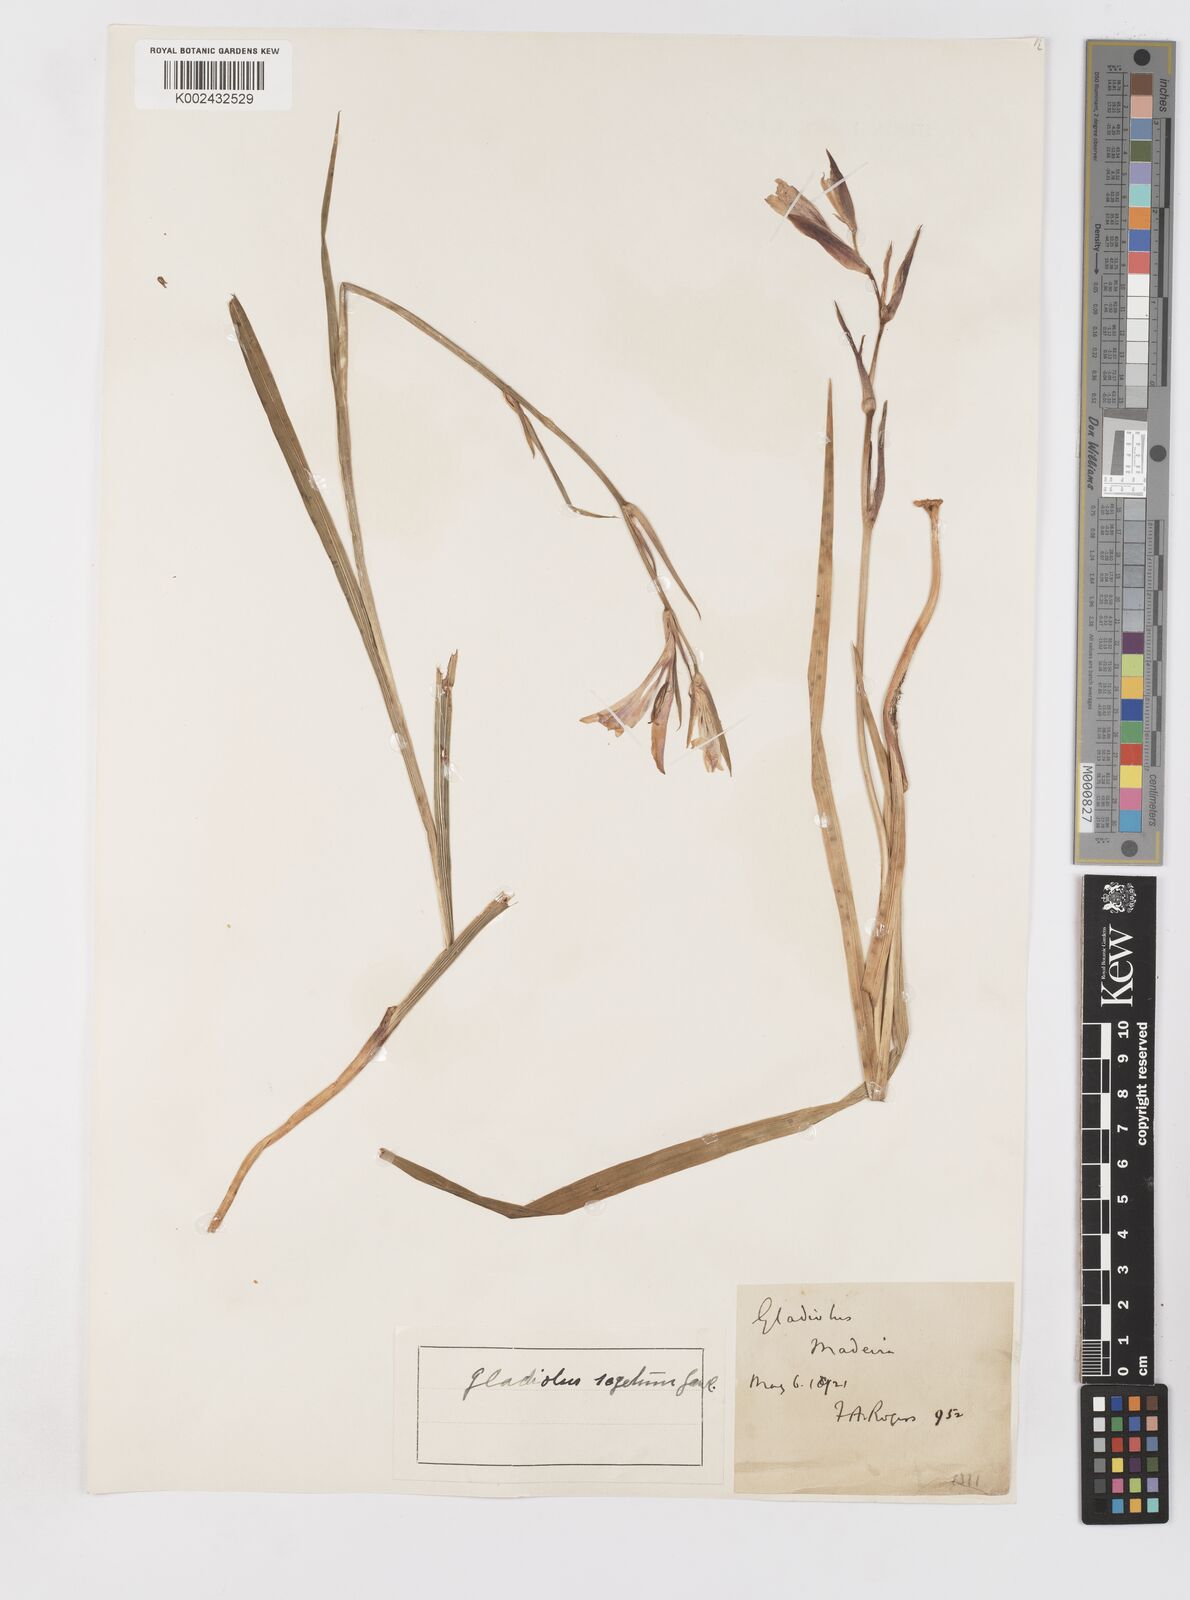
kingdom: Plantae
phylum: Tracheophyta
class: Liliopsida
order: Asparagales
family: Iridaceae
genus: Gladiolus
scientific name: Gladiolus italicus
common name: Field gladiolus
